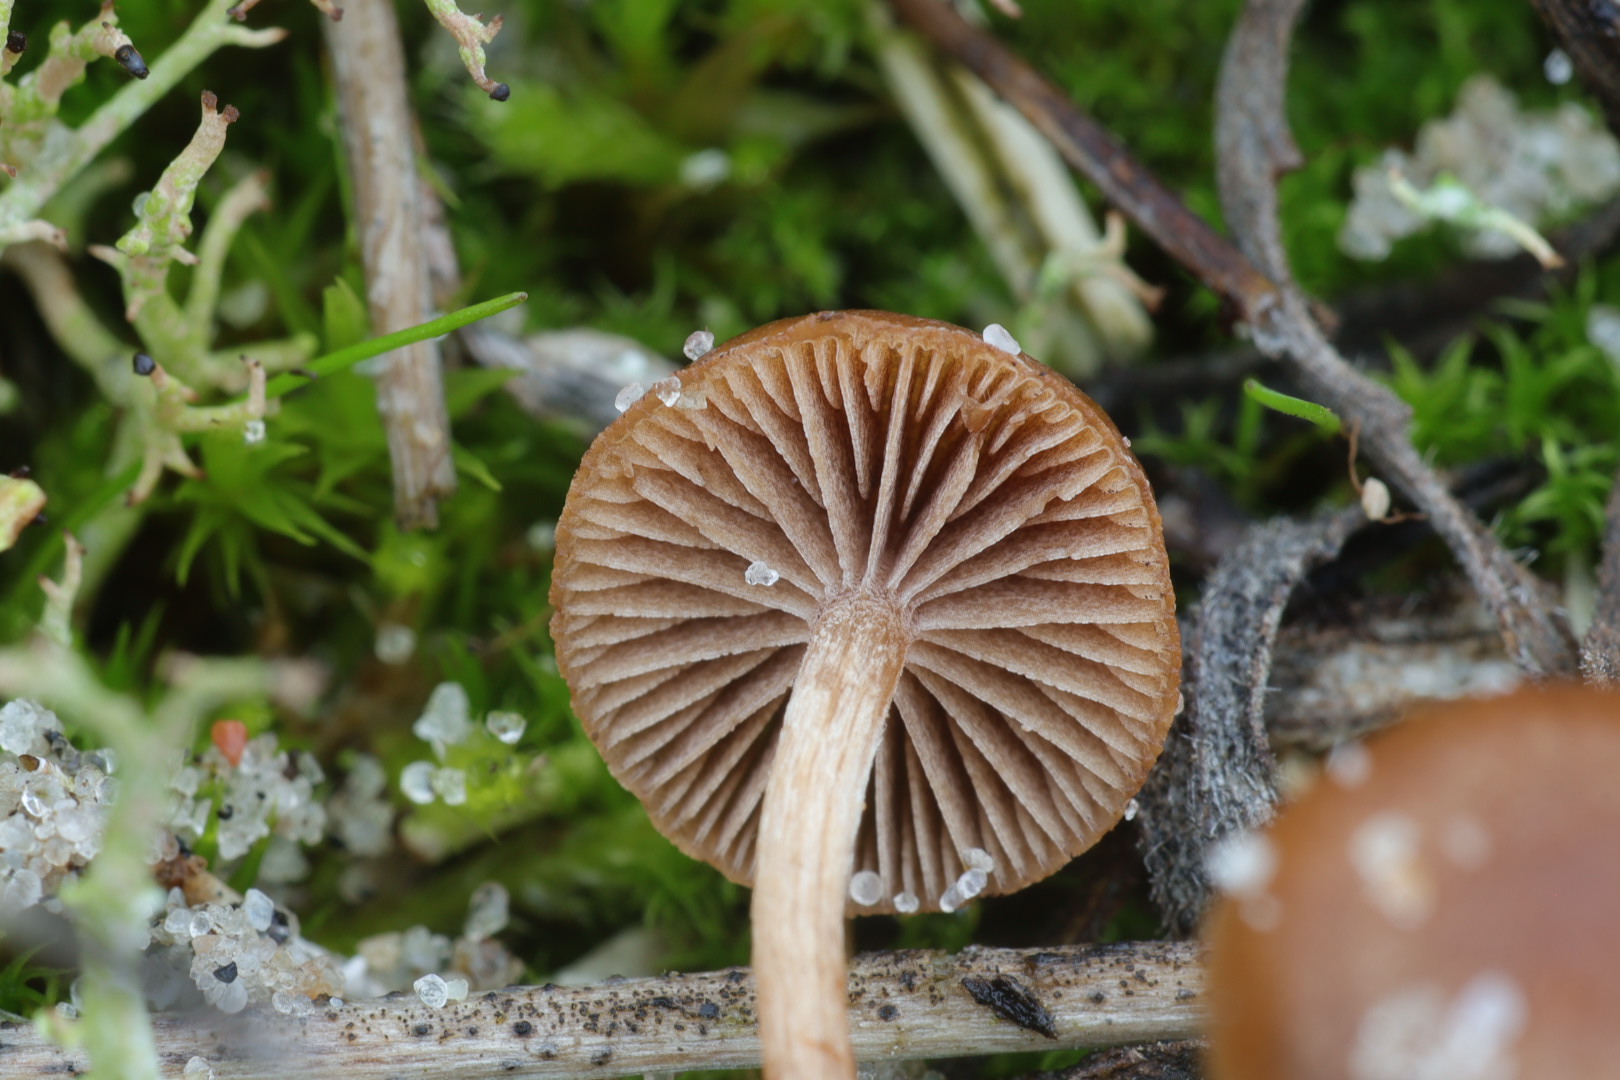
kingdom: Fungi
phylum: Basidiomycota
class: Agaricomycetes
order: Agaricales
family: Strophariaceae
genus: Deconica
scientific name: Deconica montana
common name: rødbrun stråhat
